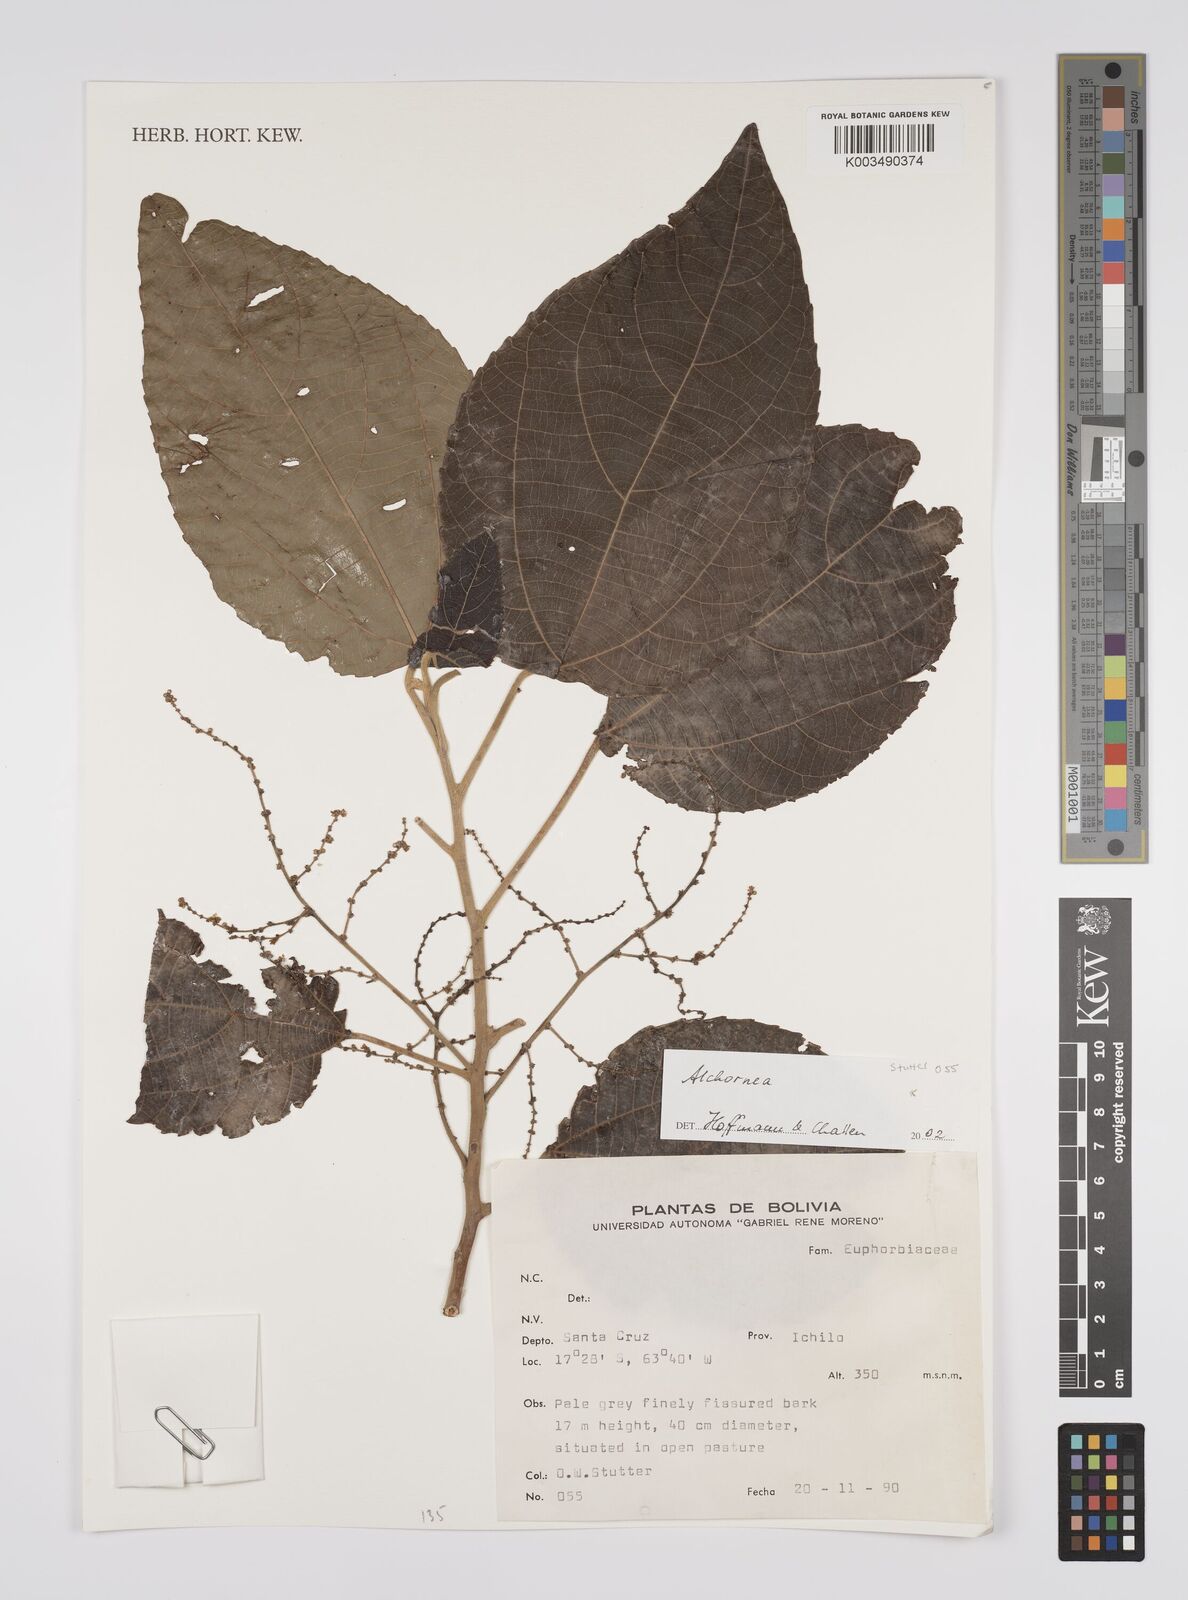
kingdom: Plantae
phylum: Tracheophyta
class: Magnoliopsida
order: Malpighiales
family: Euphorbiaceae
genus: Alchornea
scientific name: Alchornea
